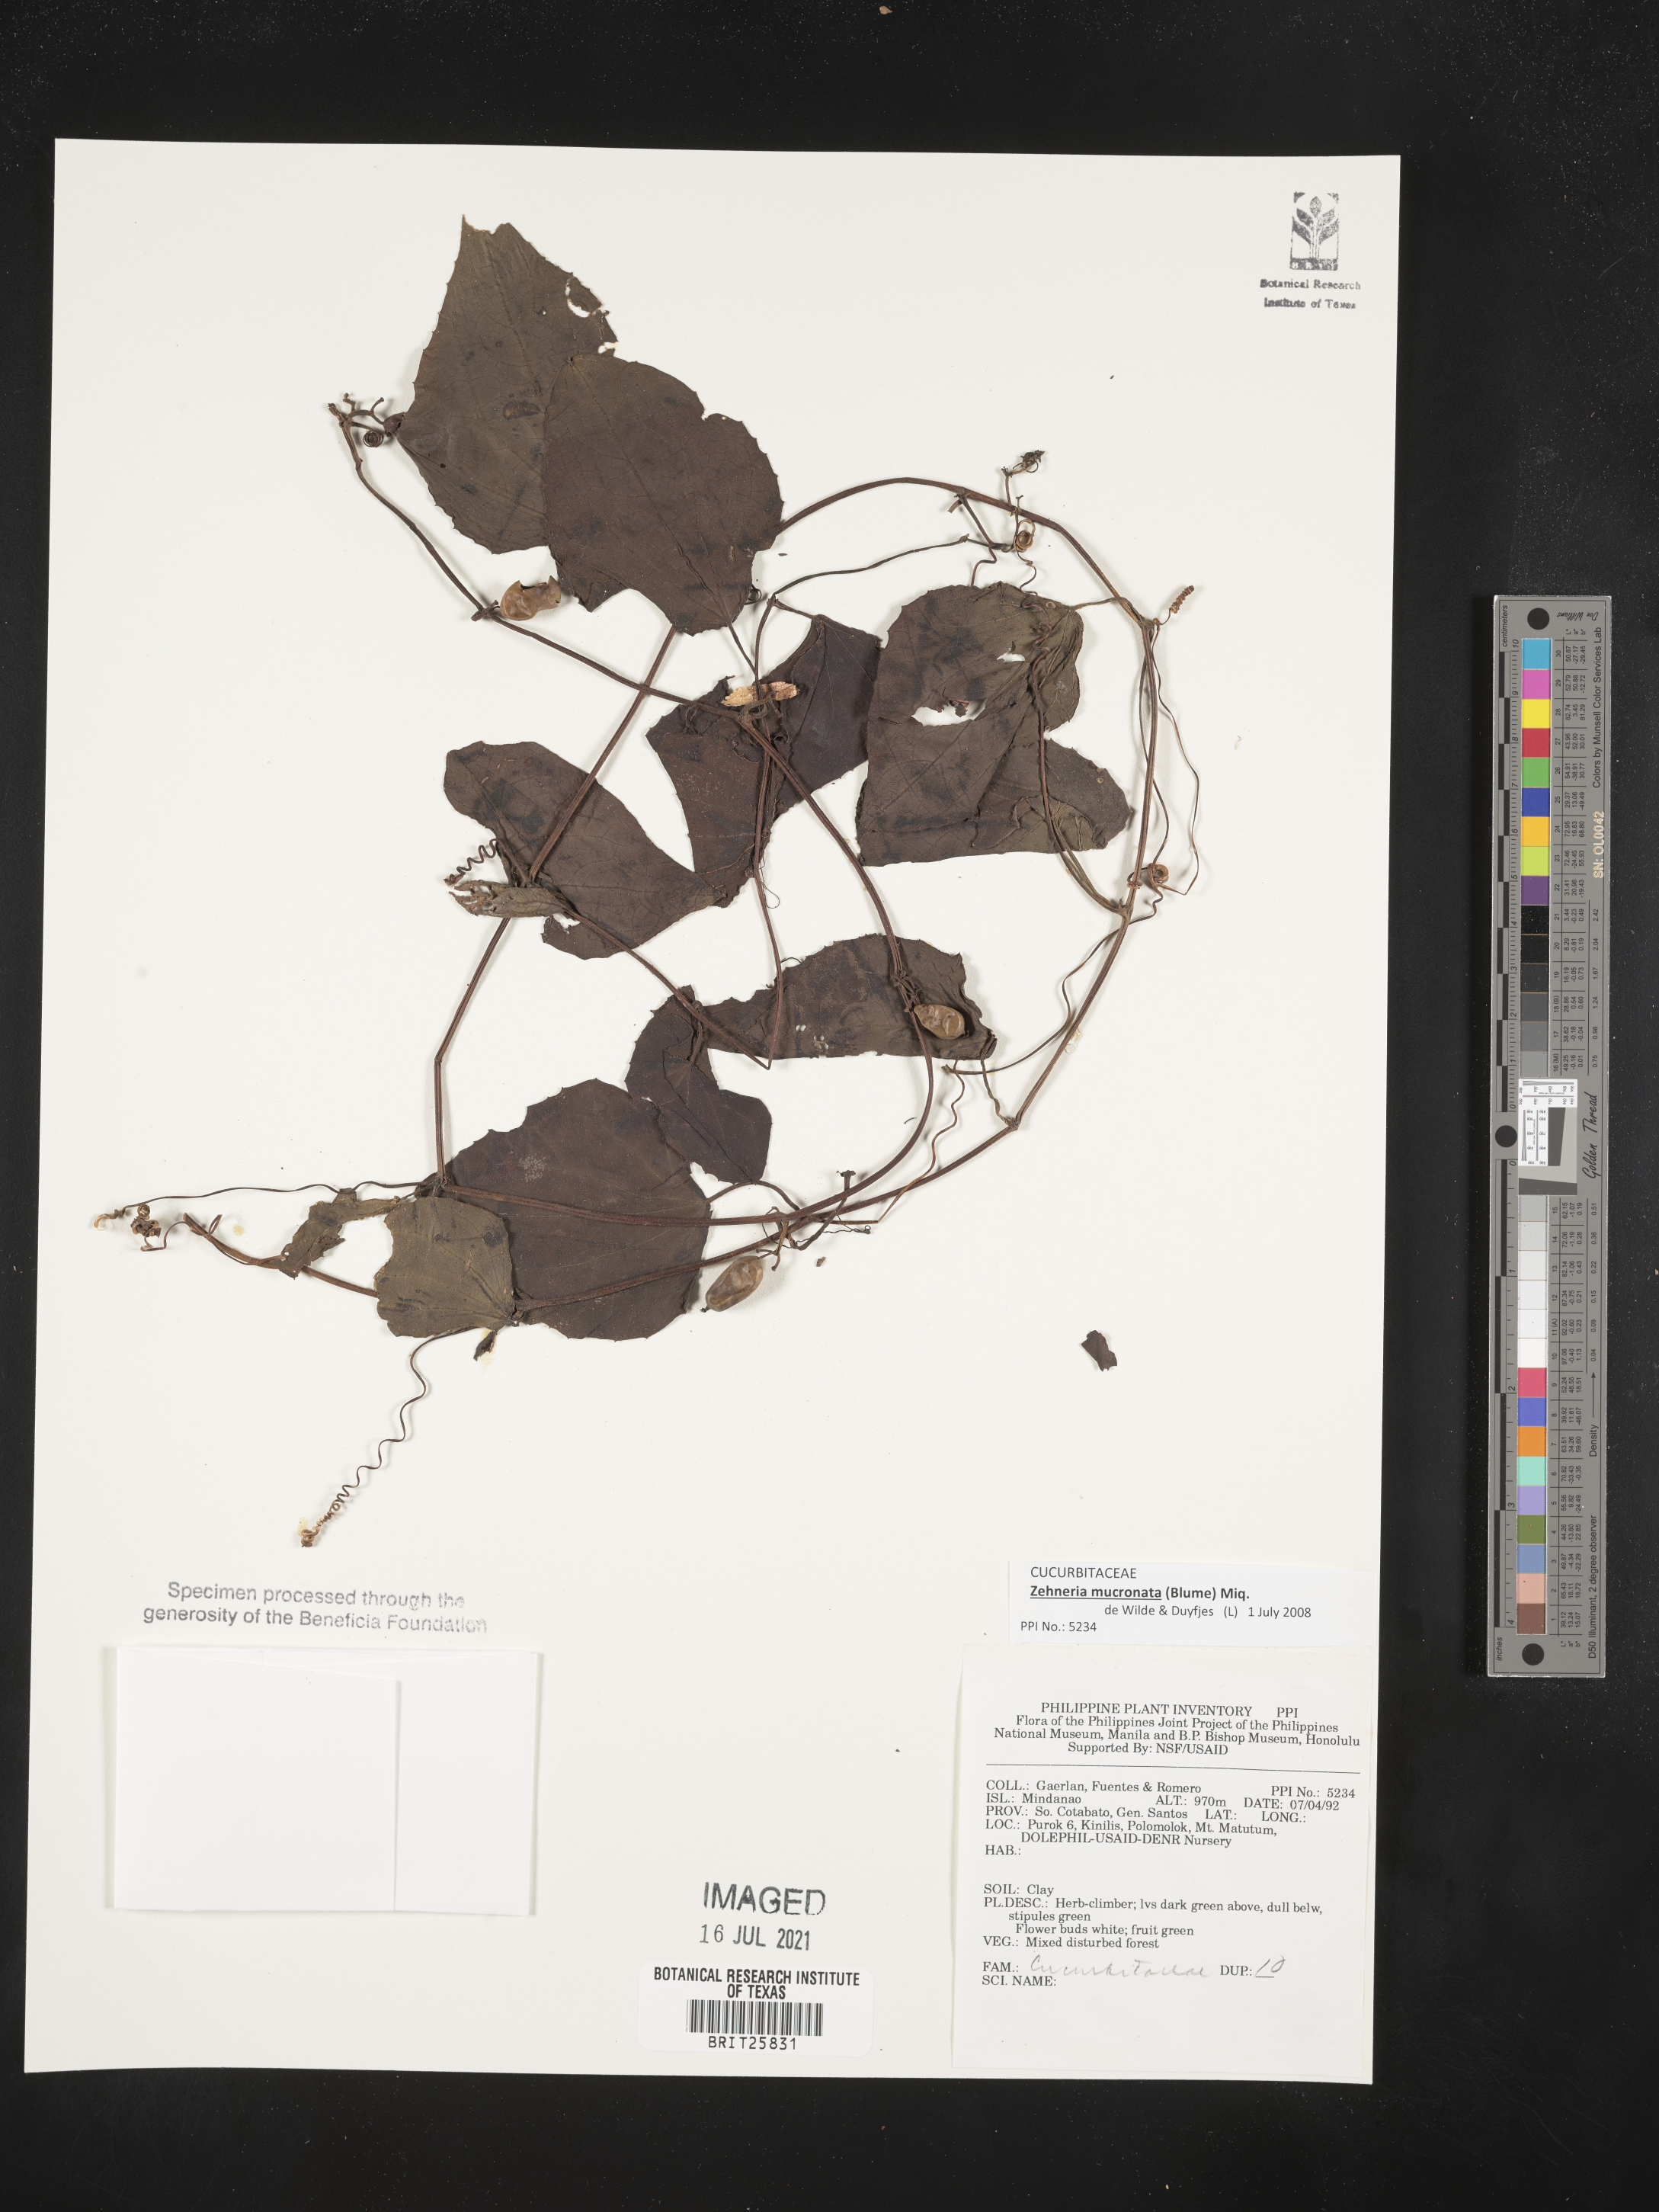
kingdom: Plantae
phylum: Tracheophyta
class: Magnoliopsida
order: Cucurbitales
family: Cucurbitaceae
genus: Zehneria
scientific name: Zehneria mucronata
